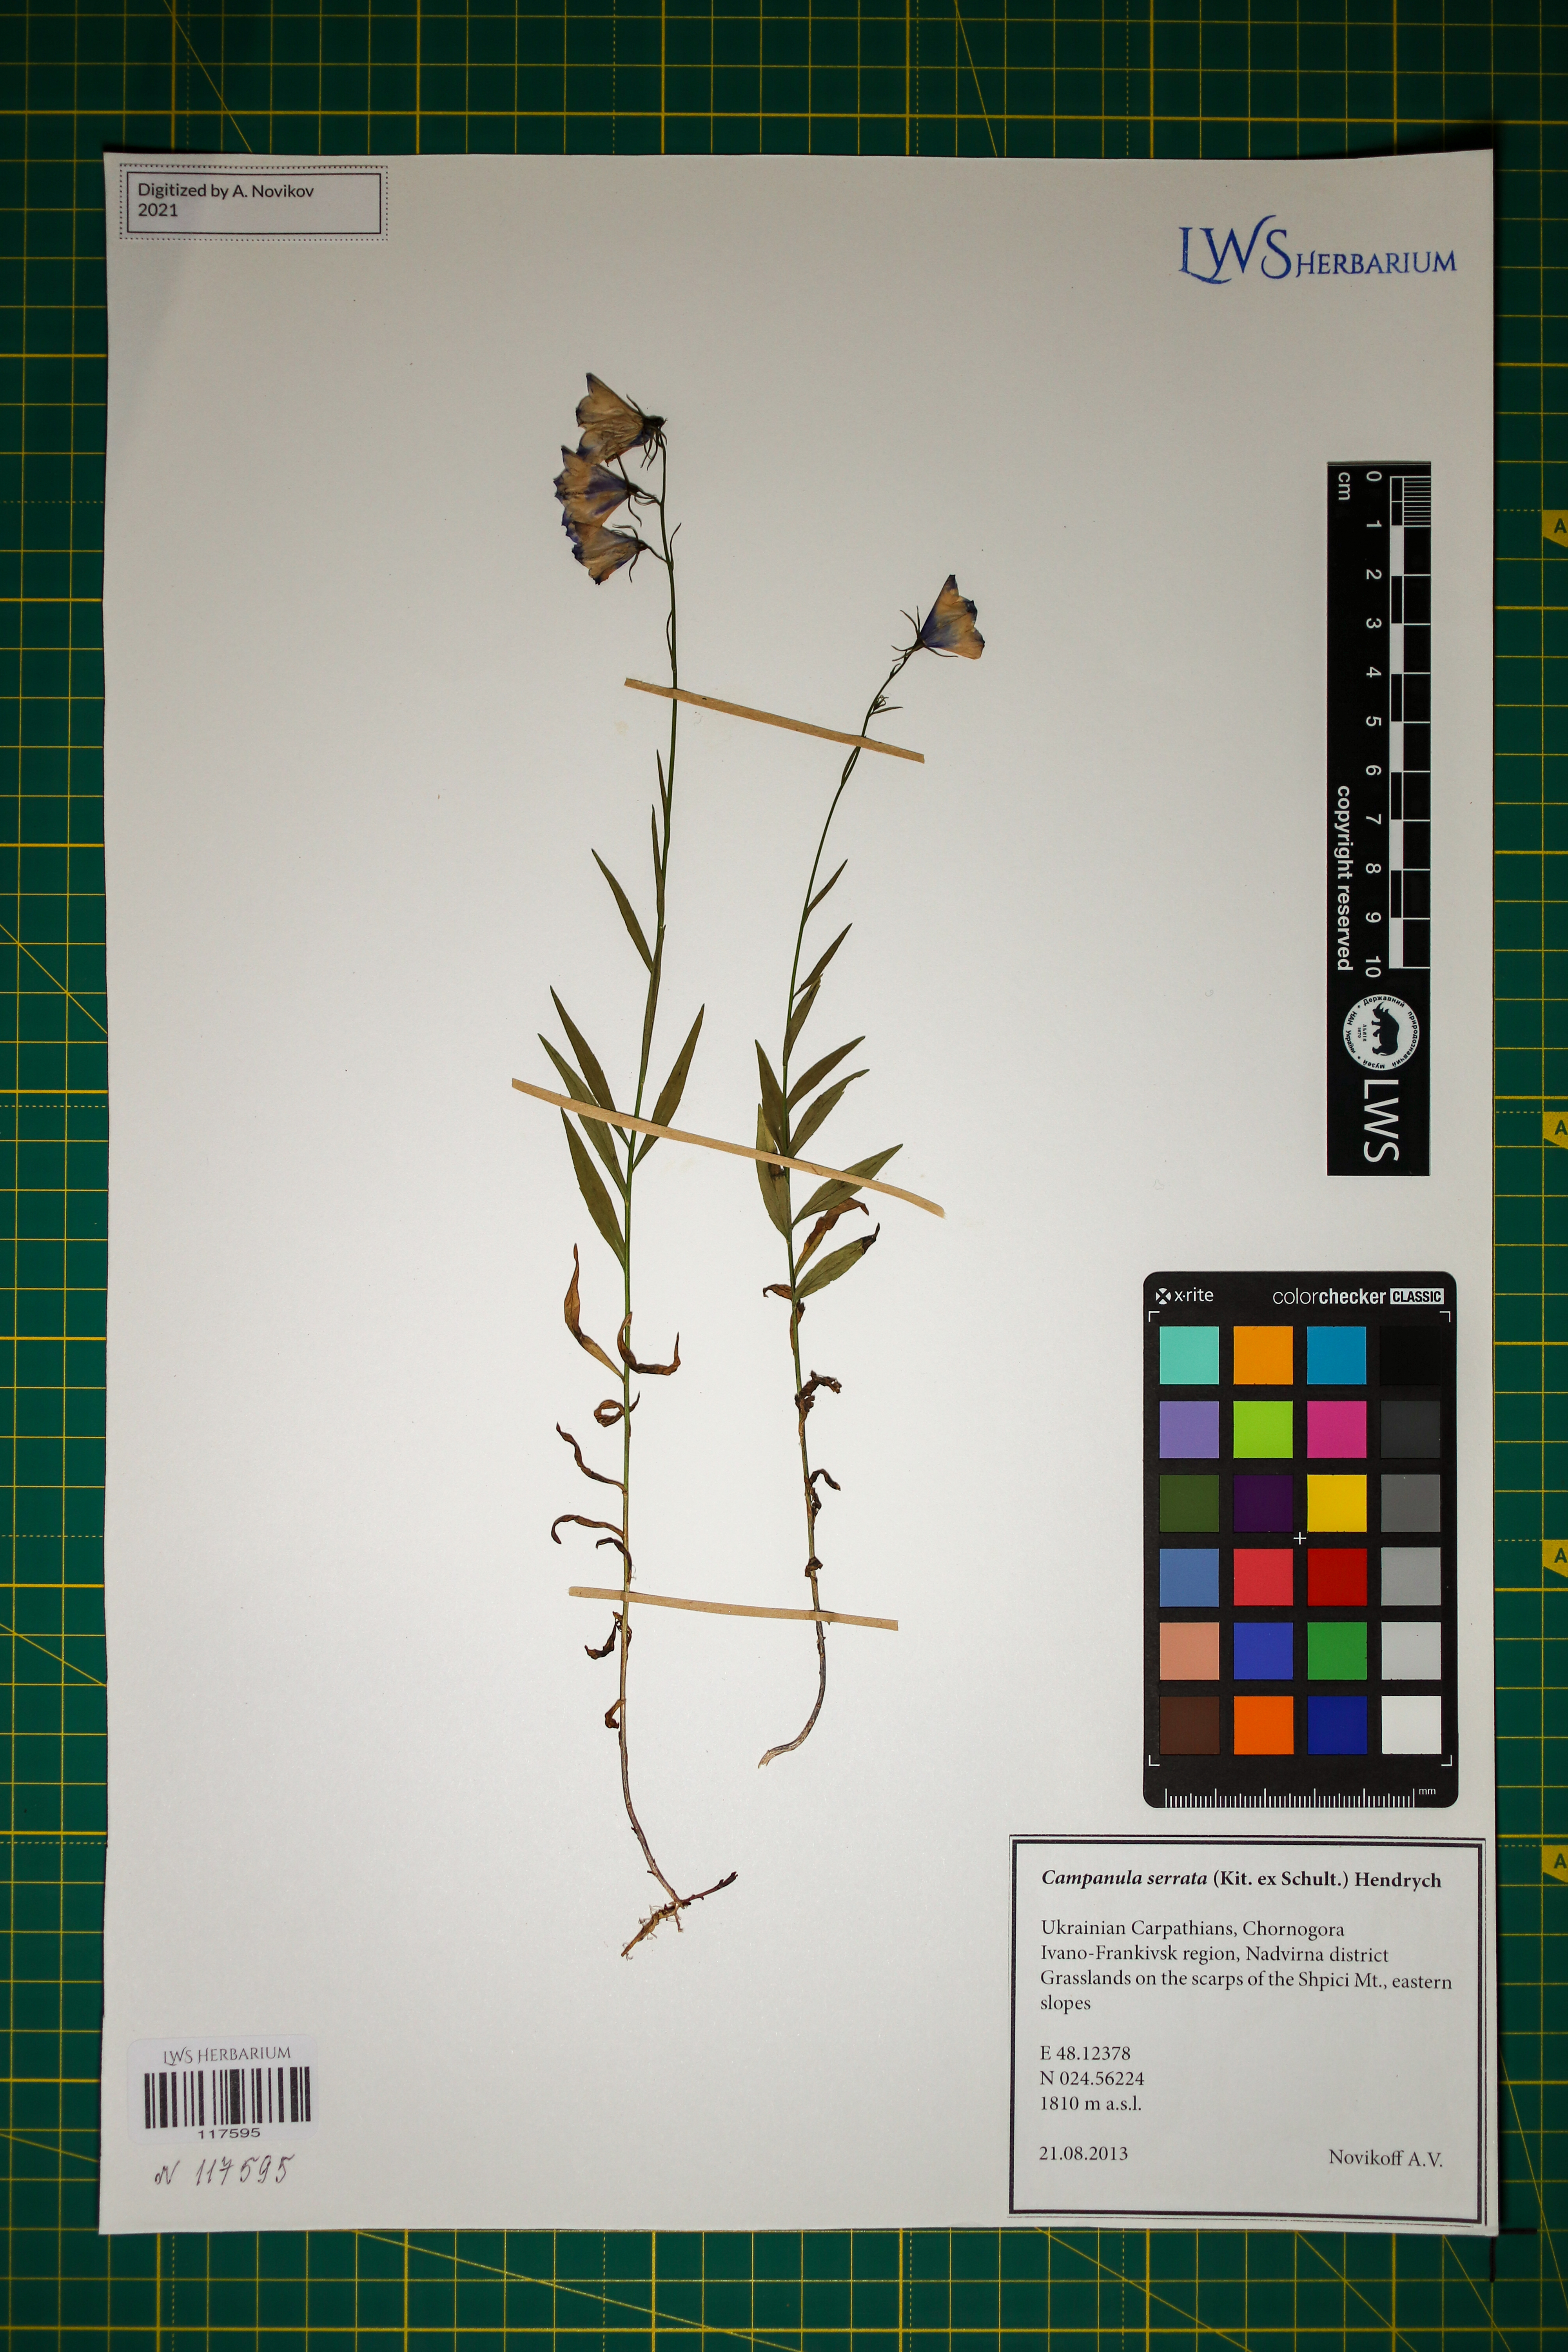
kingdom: Plantae
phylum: Tracheophyta
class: Magnoliopsida
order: Asterales
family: Campanulaceae
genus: Campanula
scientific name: Campanula serrata
